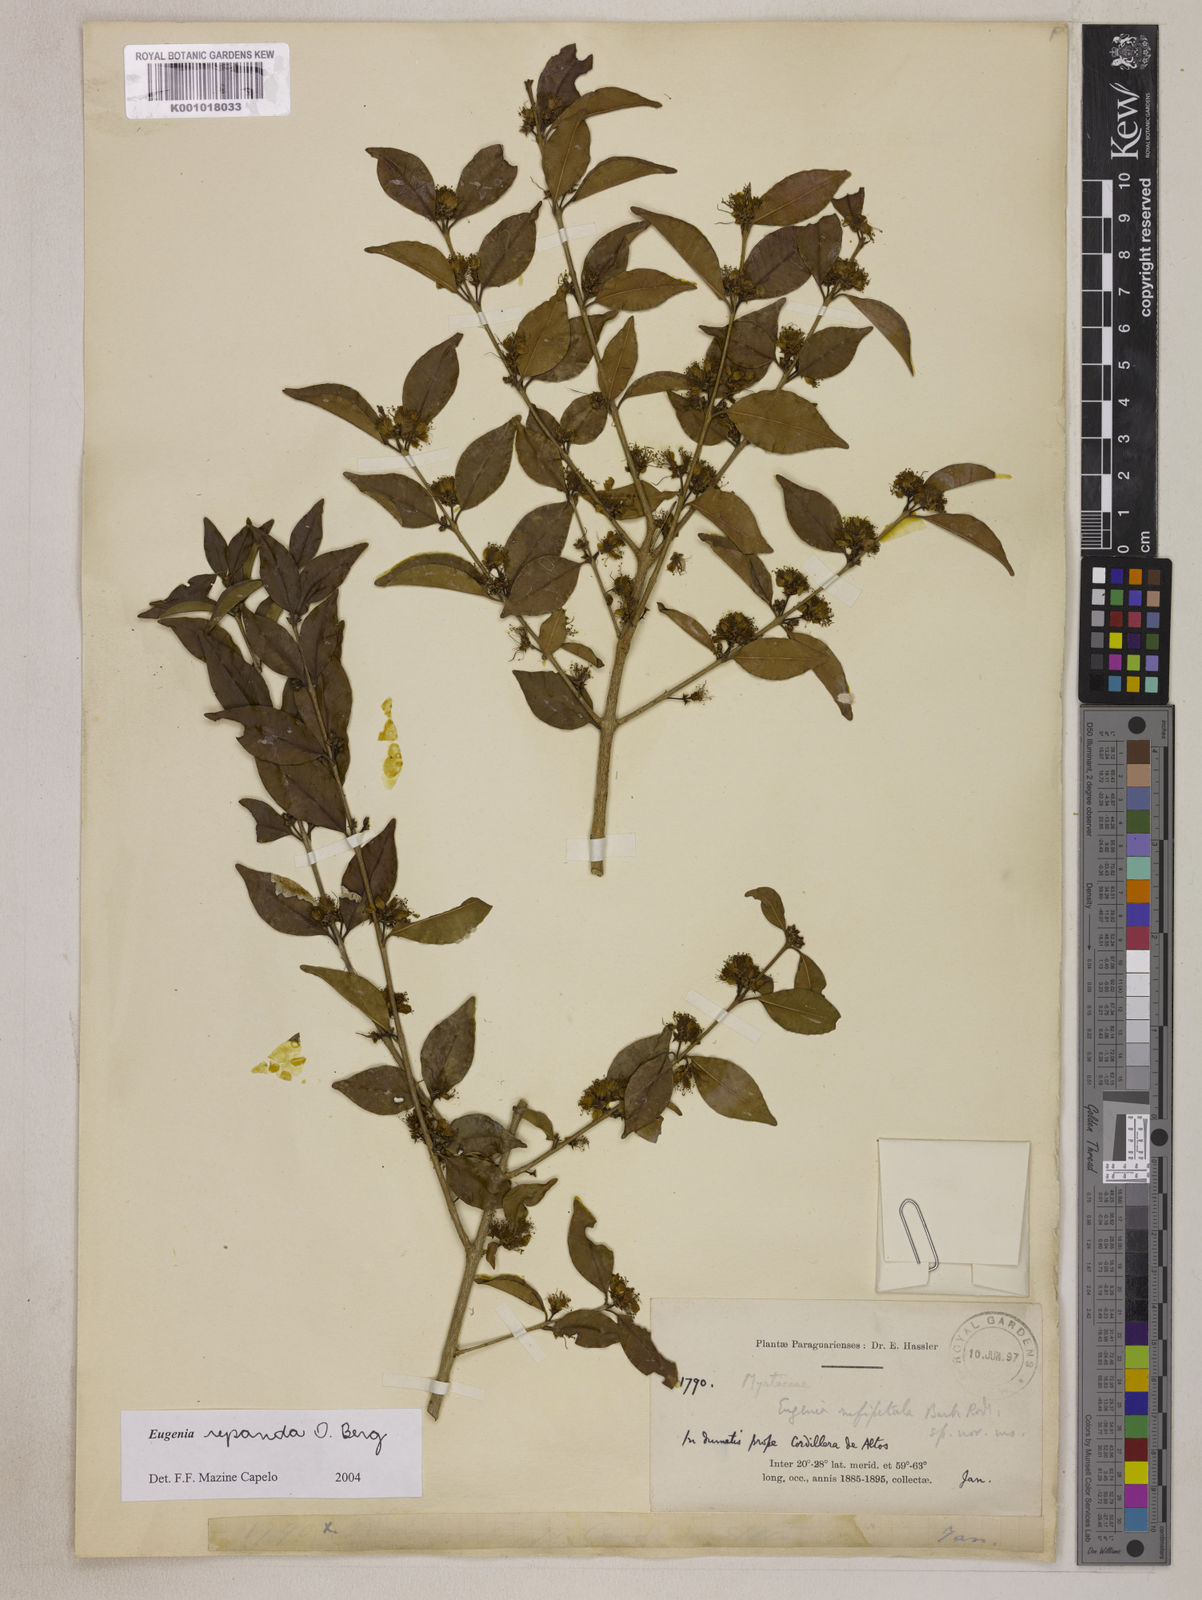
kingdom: Plantae
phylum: Tracheophyta
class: Magnoliopsida
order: Myrtales
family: Myrtaceae
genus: Eugenia
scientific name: Eugenia repanda
